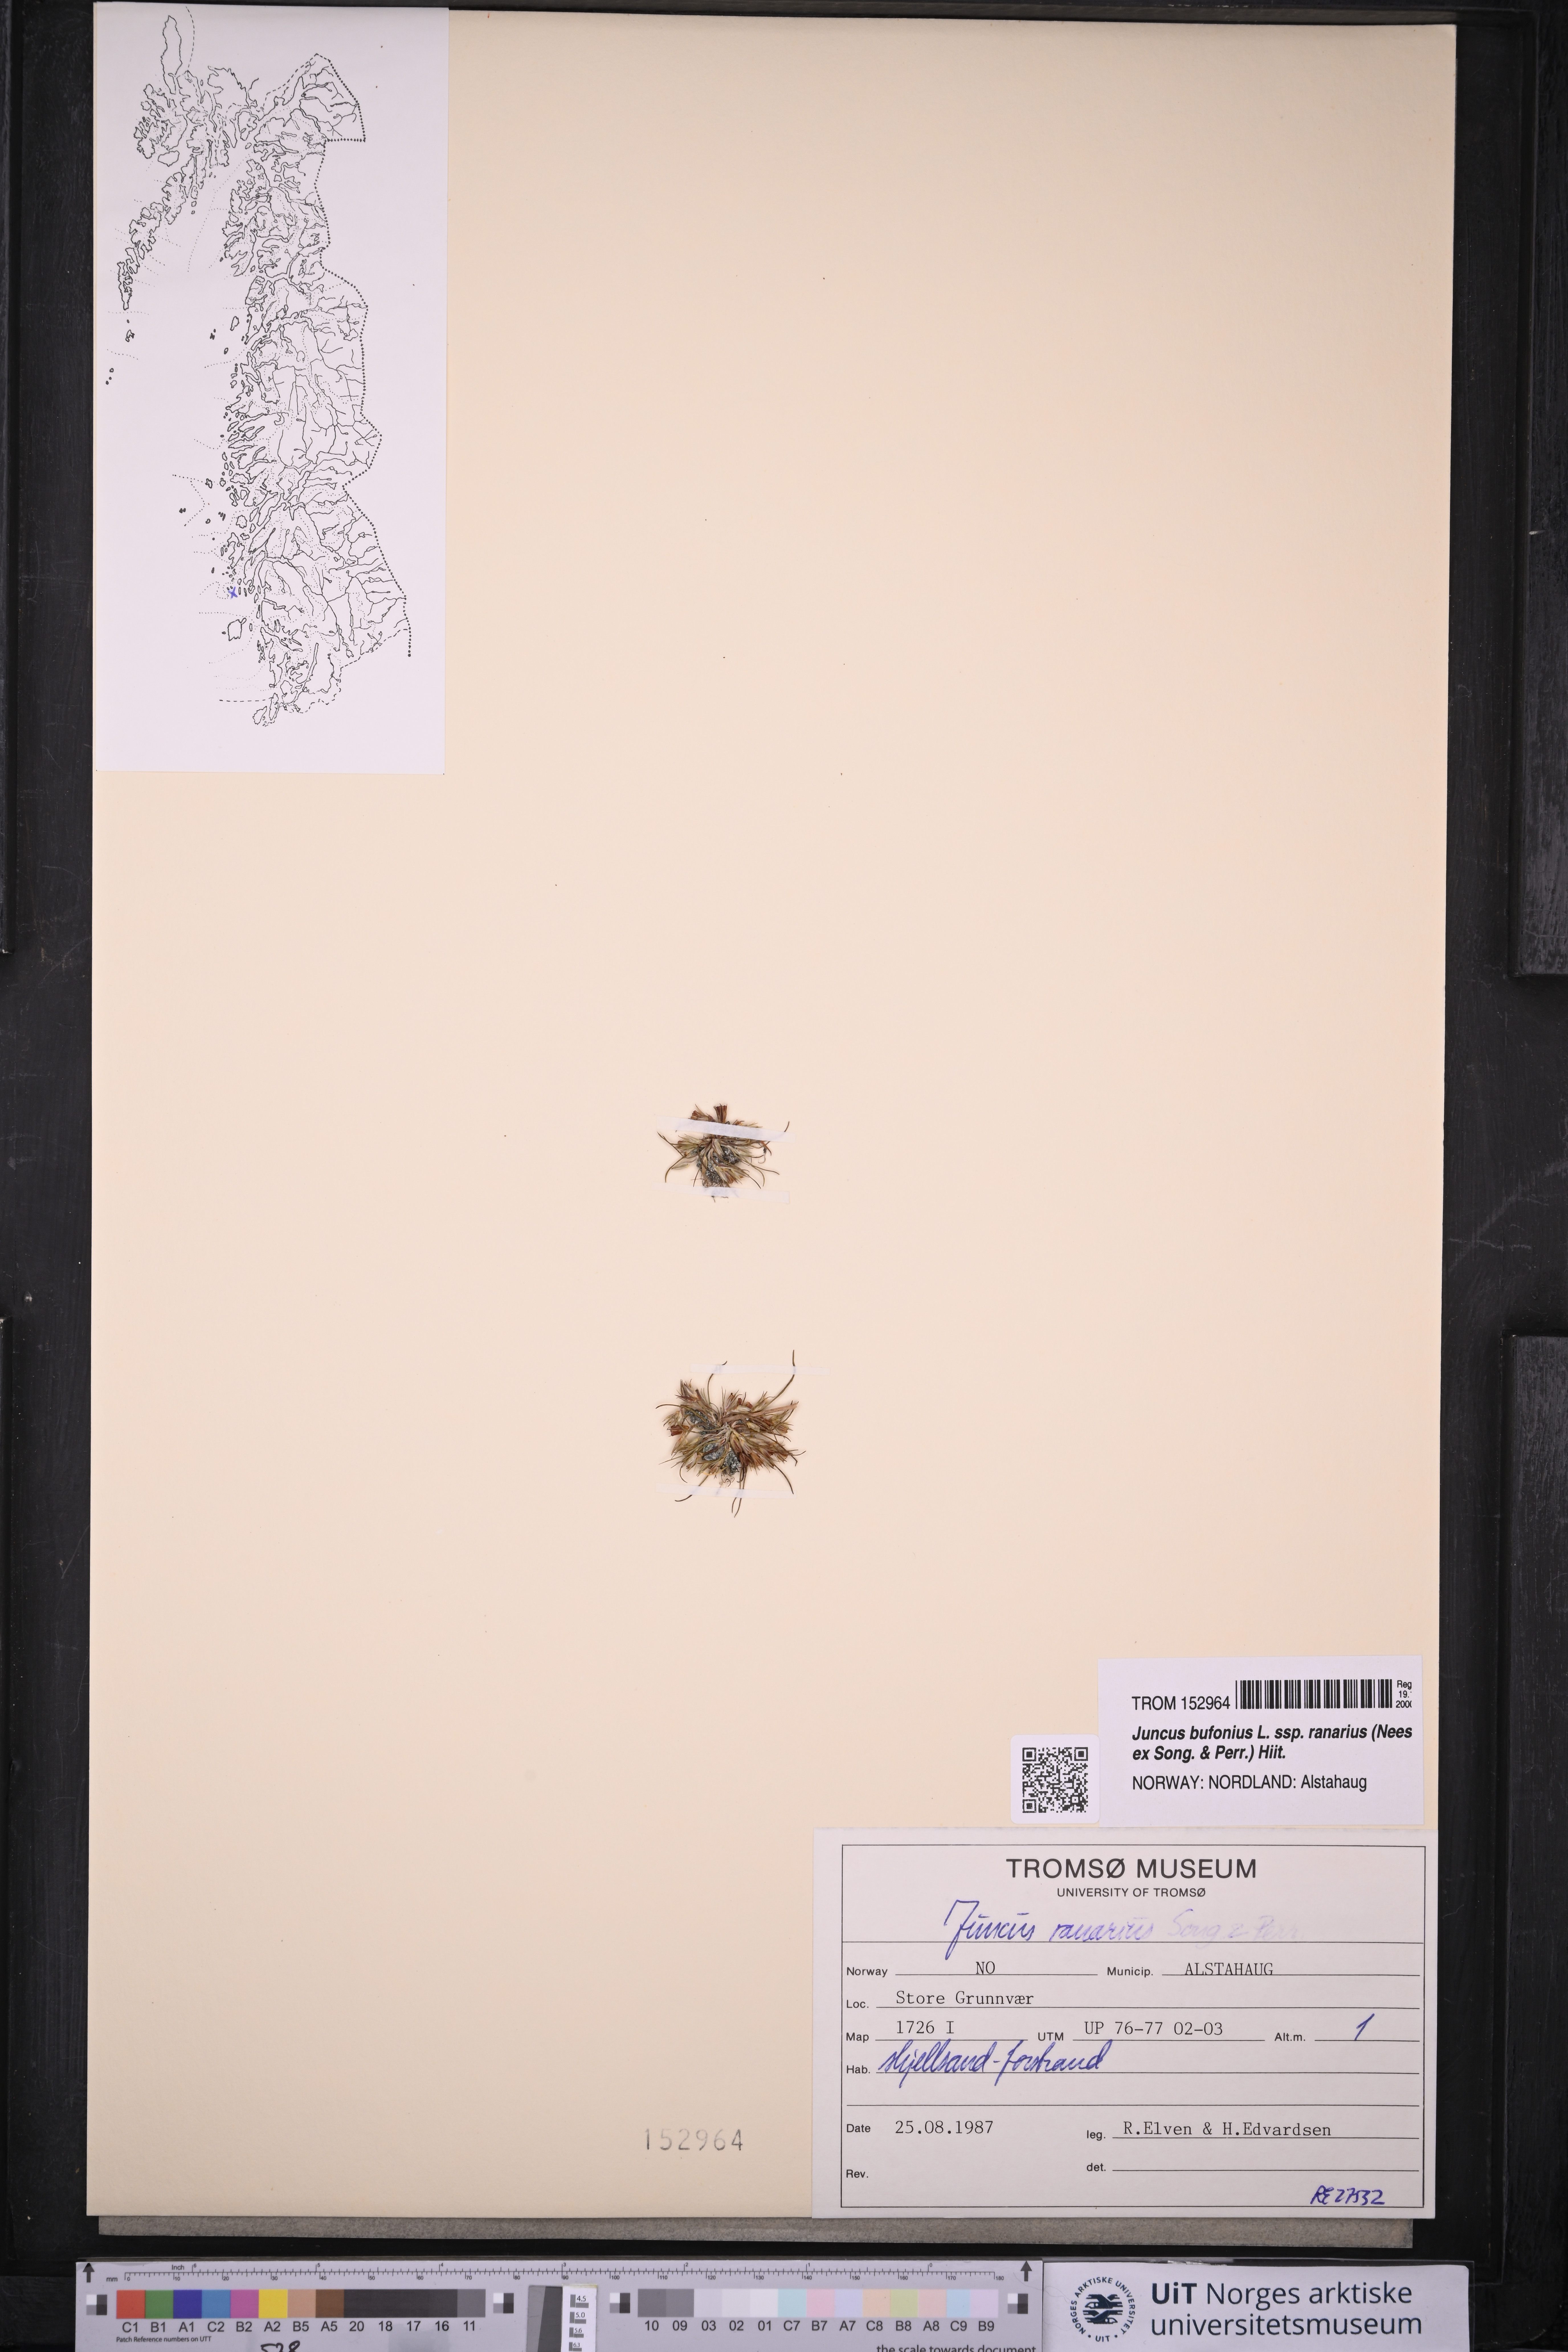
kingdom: Plantae
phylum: Tracheophyta
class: Liliopsida
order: Poales
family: Juncaceae
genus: Juncus
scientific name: Juncus ranarius
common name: Frog rush
